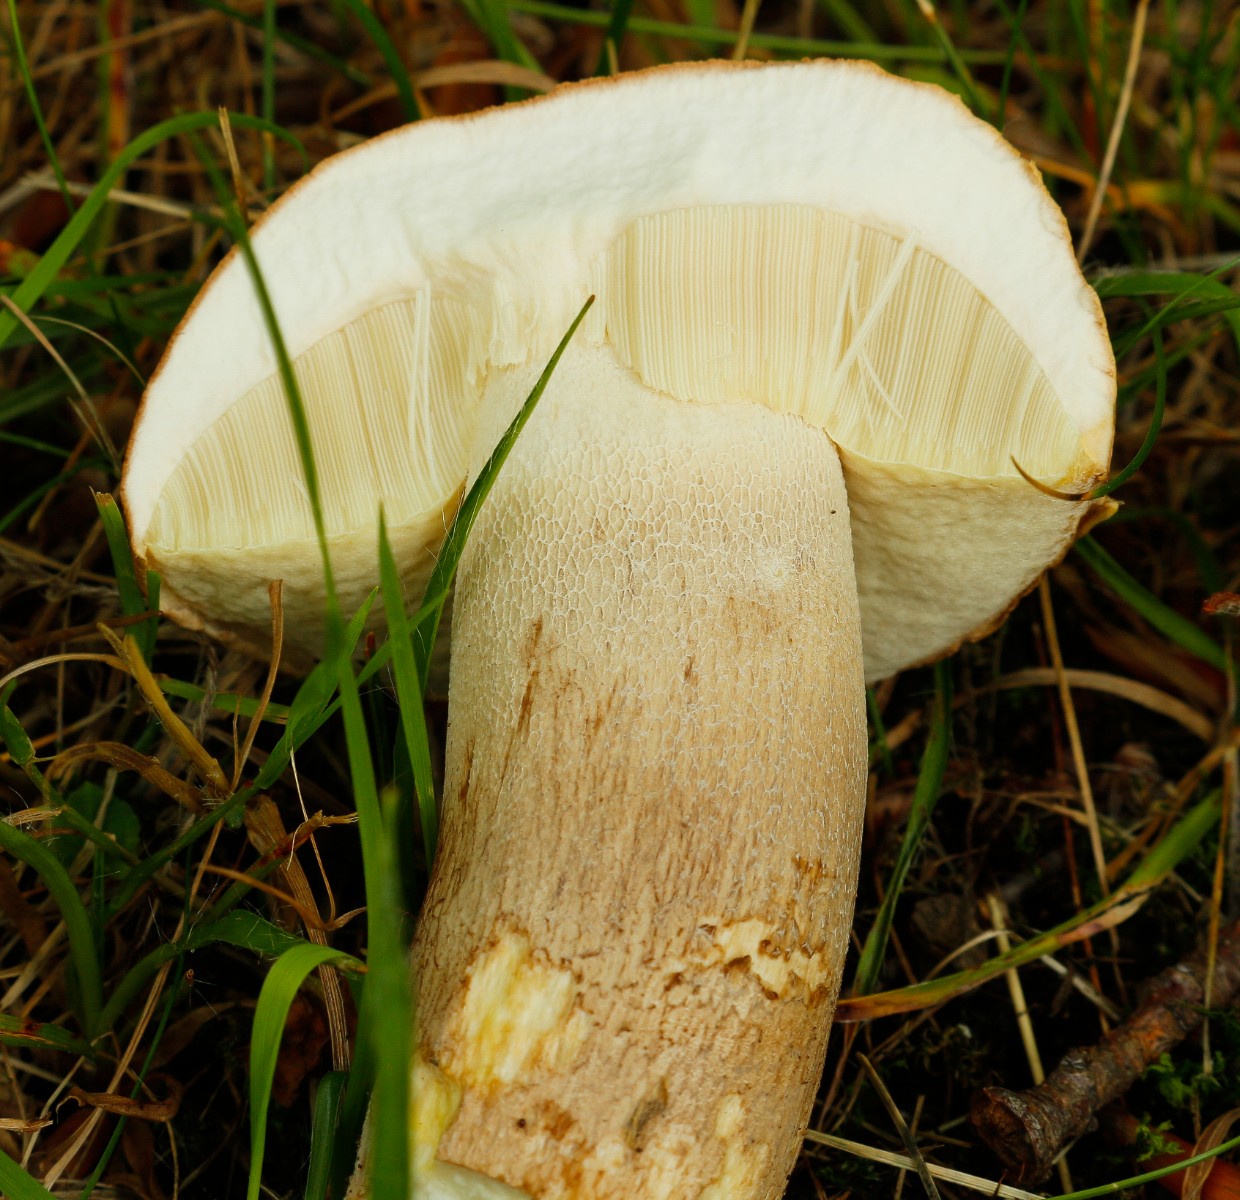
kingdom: Fungi
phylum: Basidiomycota
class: Agaricomycetes
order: Boletales
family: Boletaceae
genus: Boletus
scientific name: Boletus reticulatus
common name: sommer-rørhat
